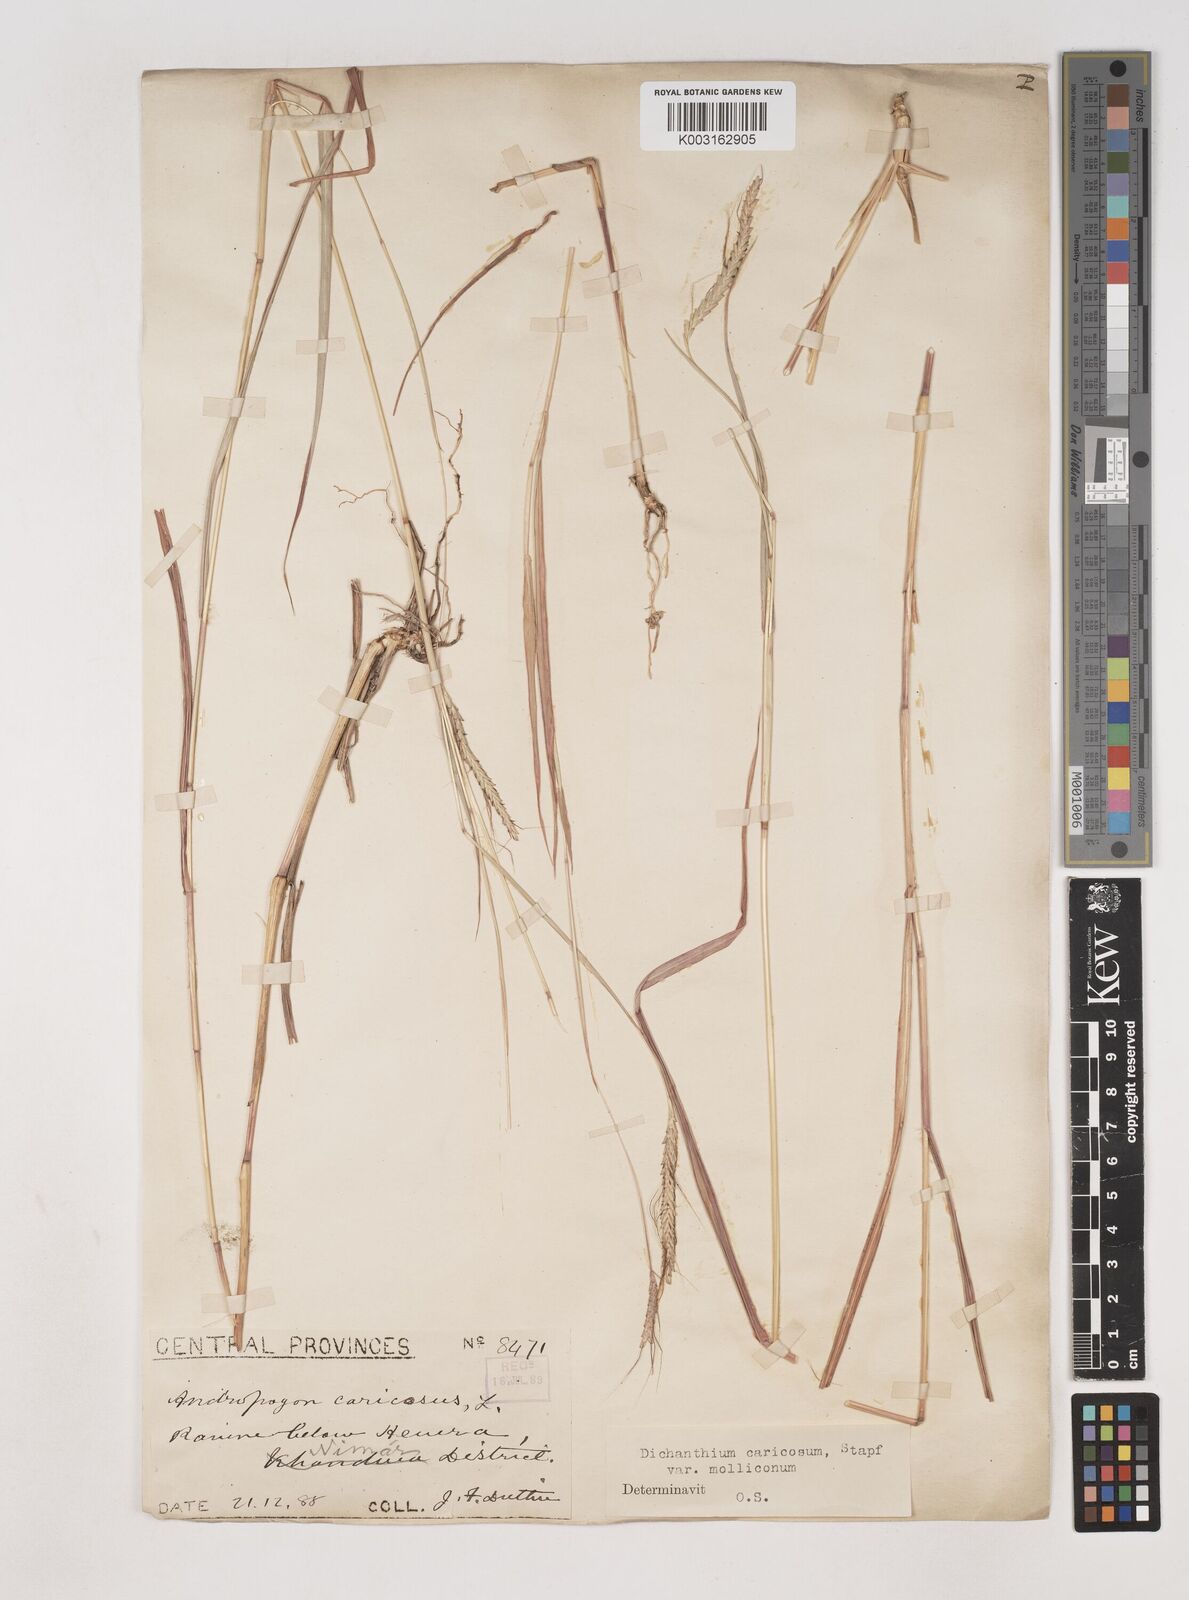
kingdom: Plantae
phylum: Tracheophyta
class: Liliopsida
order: Poales
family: Poaceae
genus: Dichanthium
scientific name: Dichanthium aristatum
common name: Angleton bluestem
